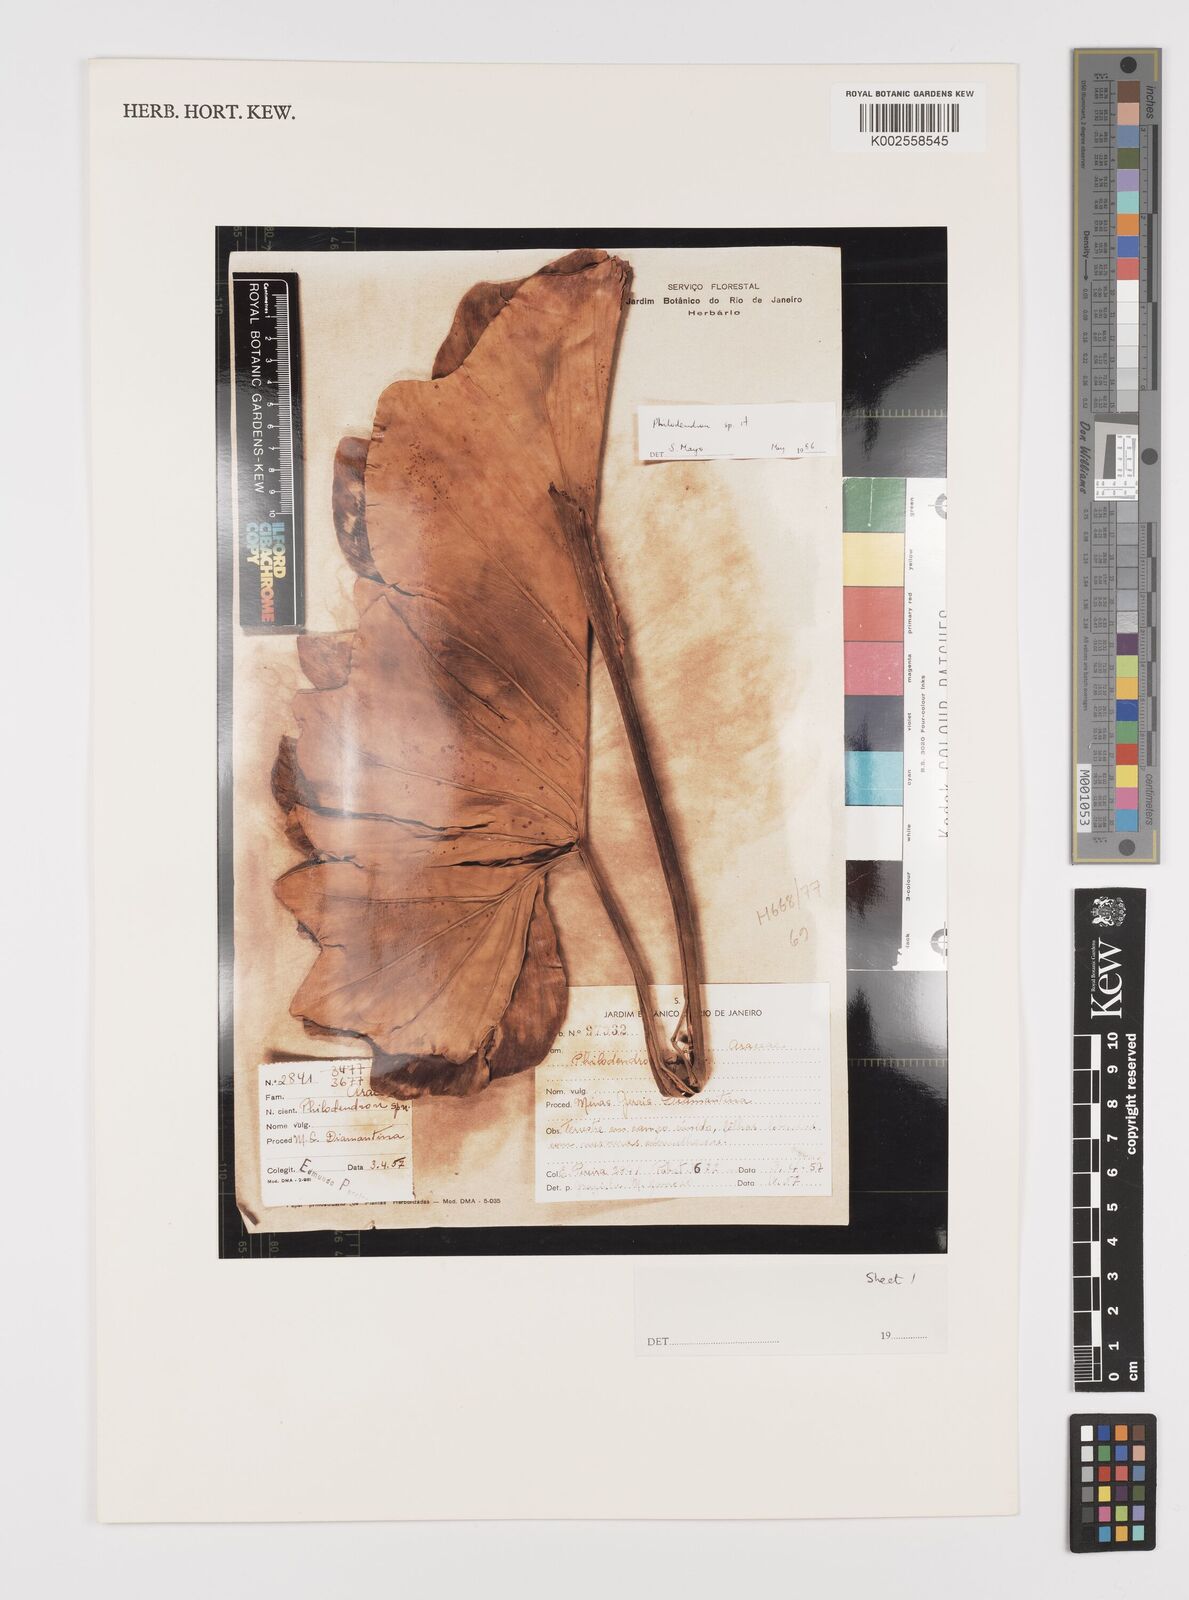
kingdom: Plantae
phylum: Tracheophyta
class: Liliopsida
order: Alismatales
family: Araceae
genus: Philodendron
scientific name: Philodendron
